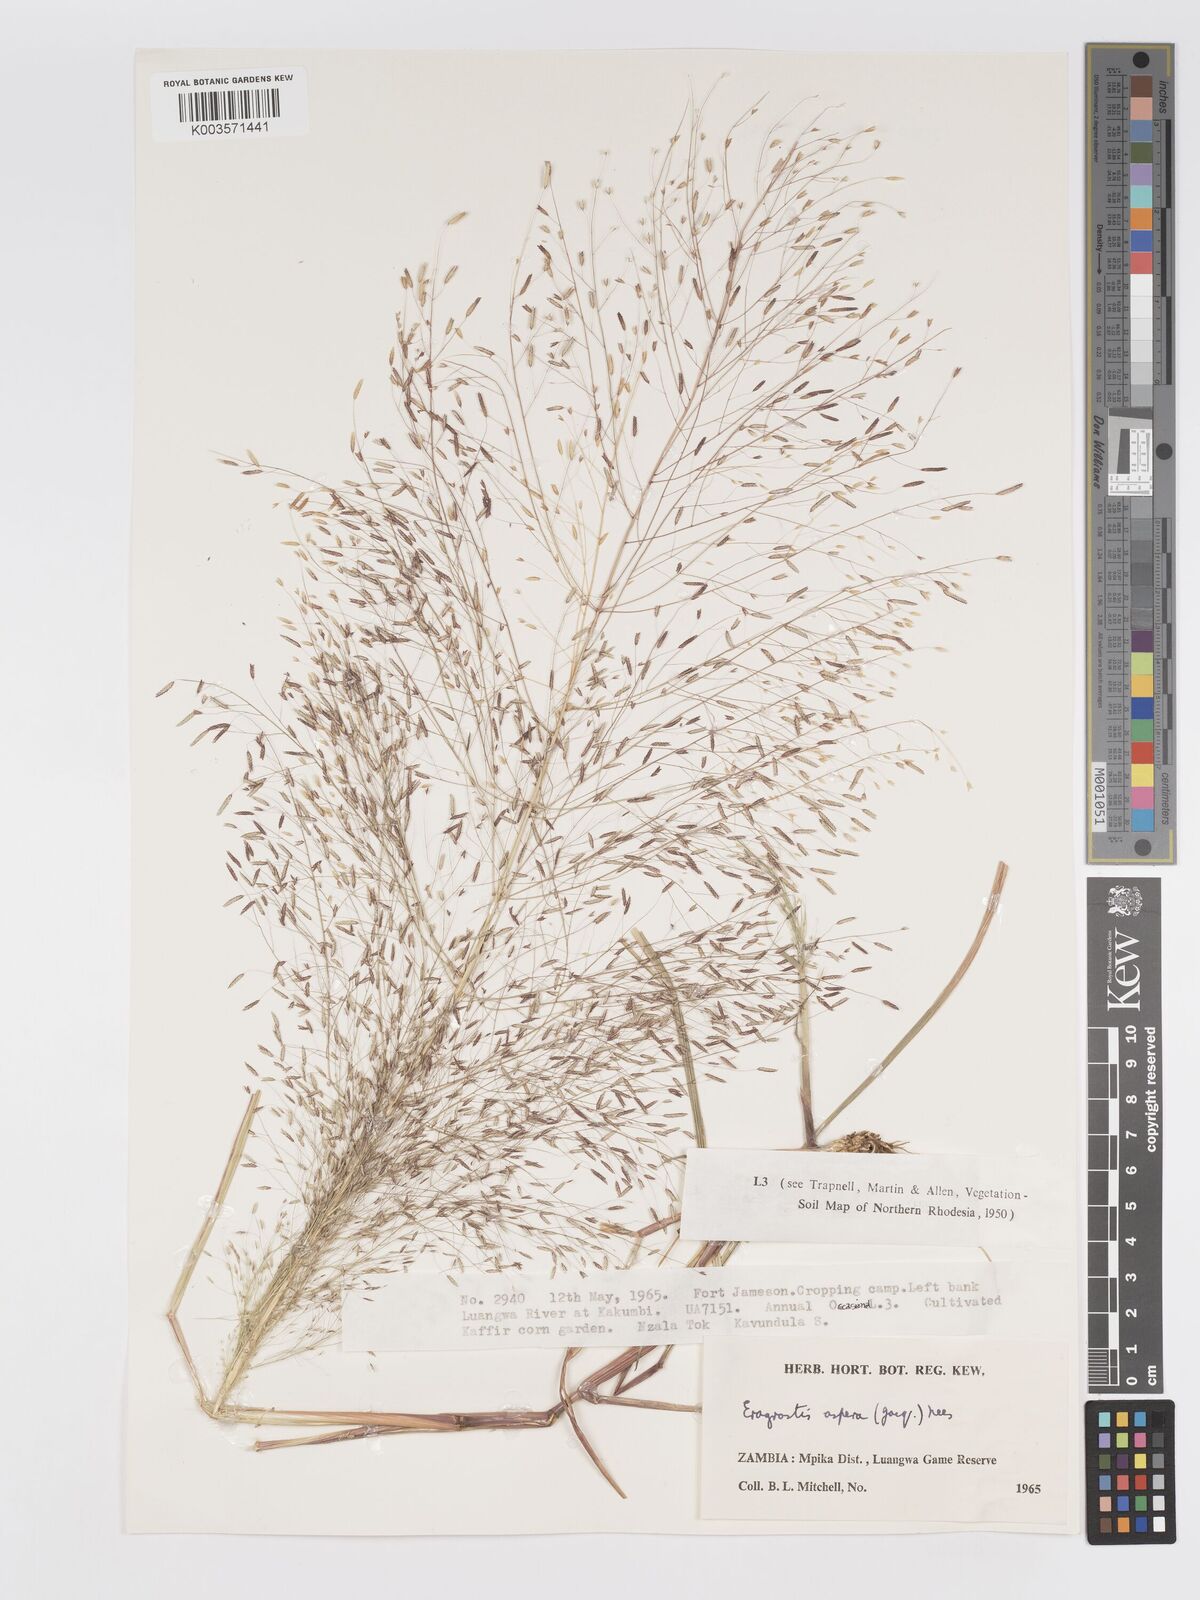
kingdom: Plantae
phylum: Tracheophyta
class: Liliopsida
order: Poales
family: Poaceae
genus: Eragrostis
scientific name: Eragrostis aspera
